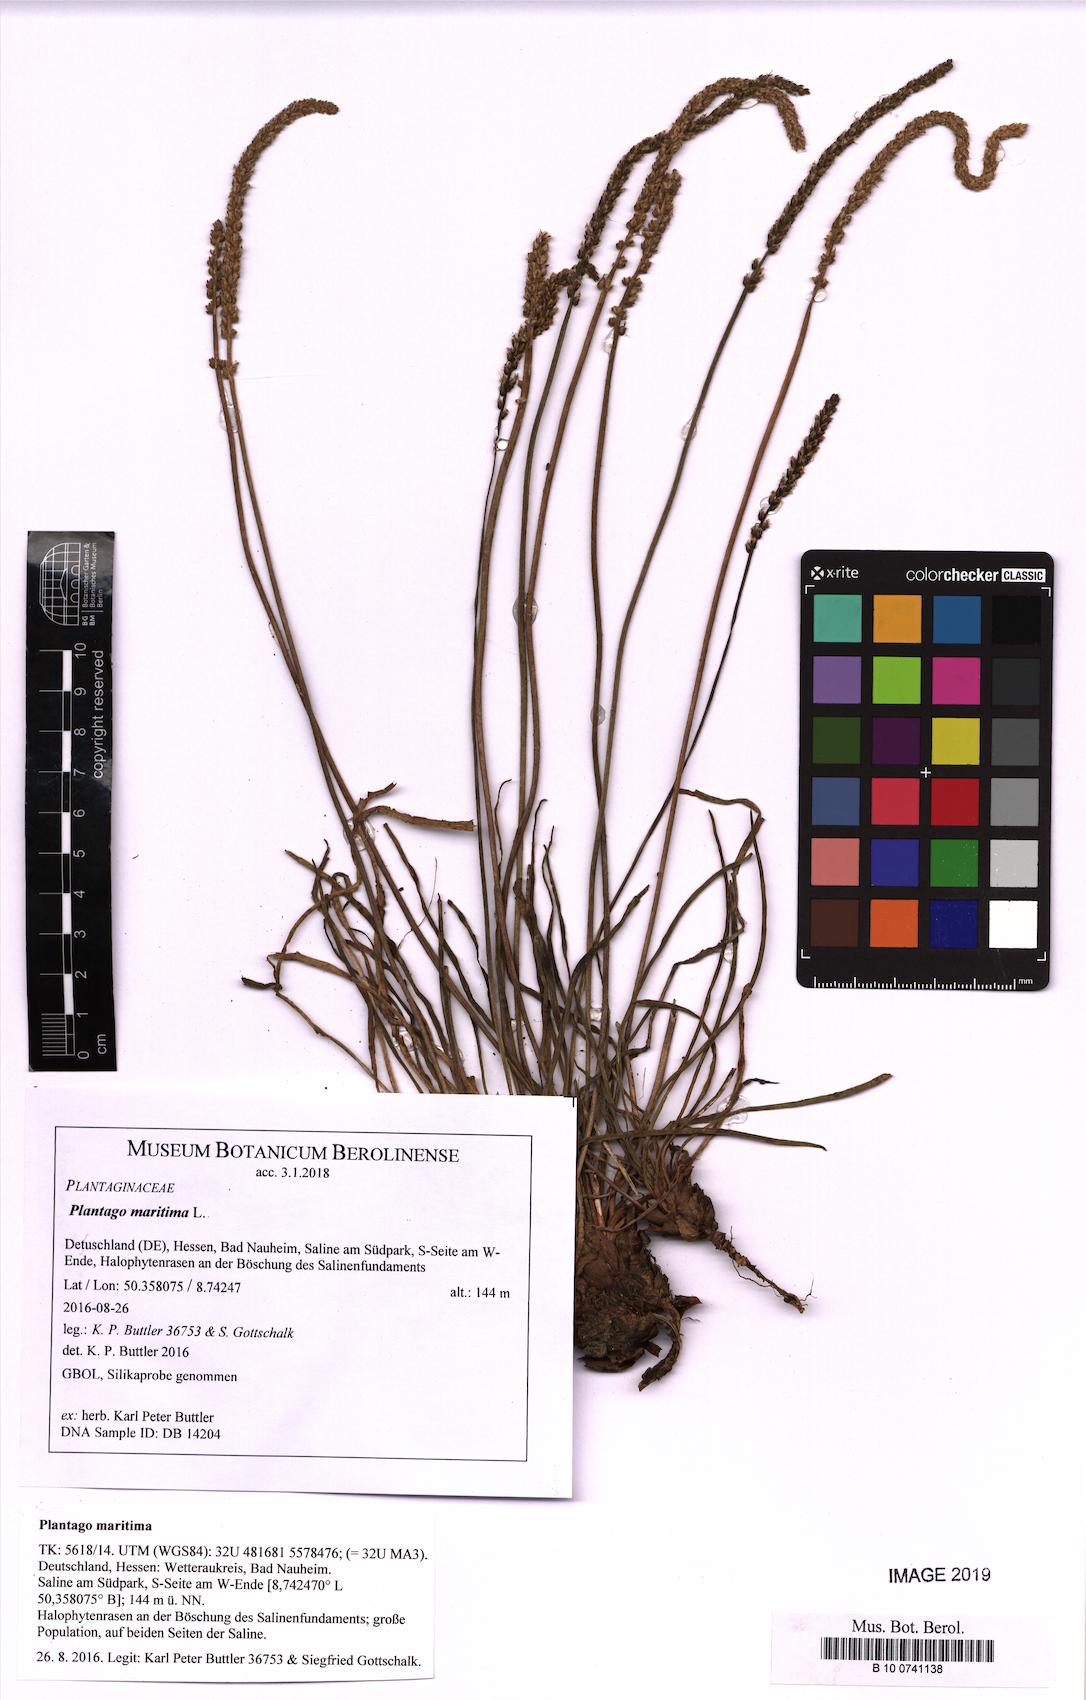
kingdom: Plantae
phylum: Tracheophyta
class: Magnoliopsida
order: Lamiales
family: Plantaginaceae
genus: Plantago
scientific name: Plantago maritima
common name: Sea plantain
